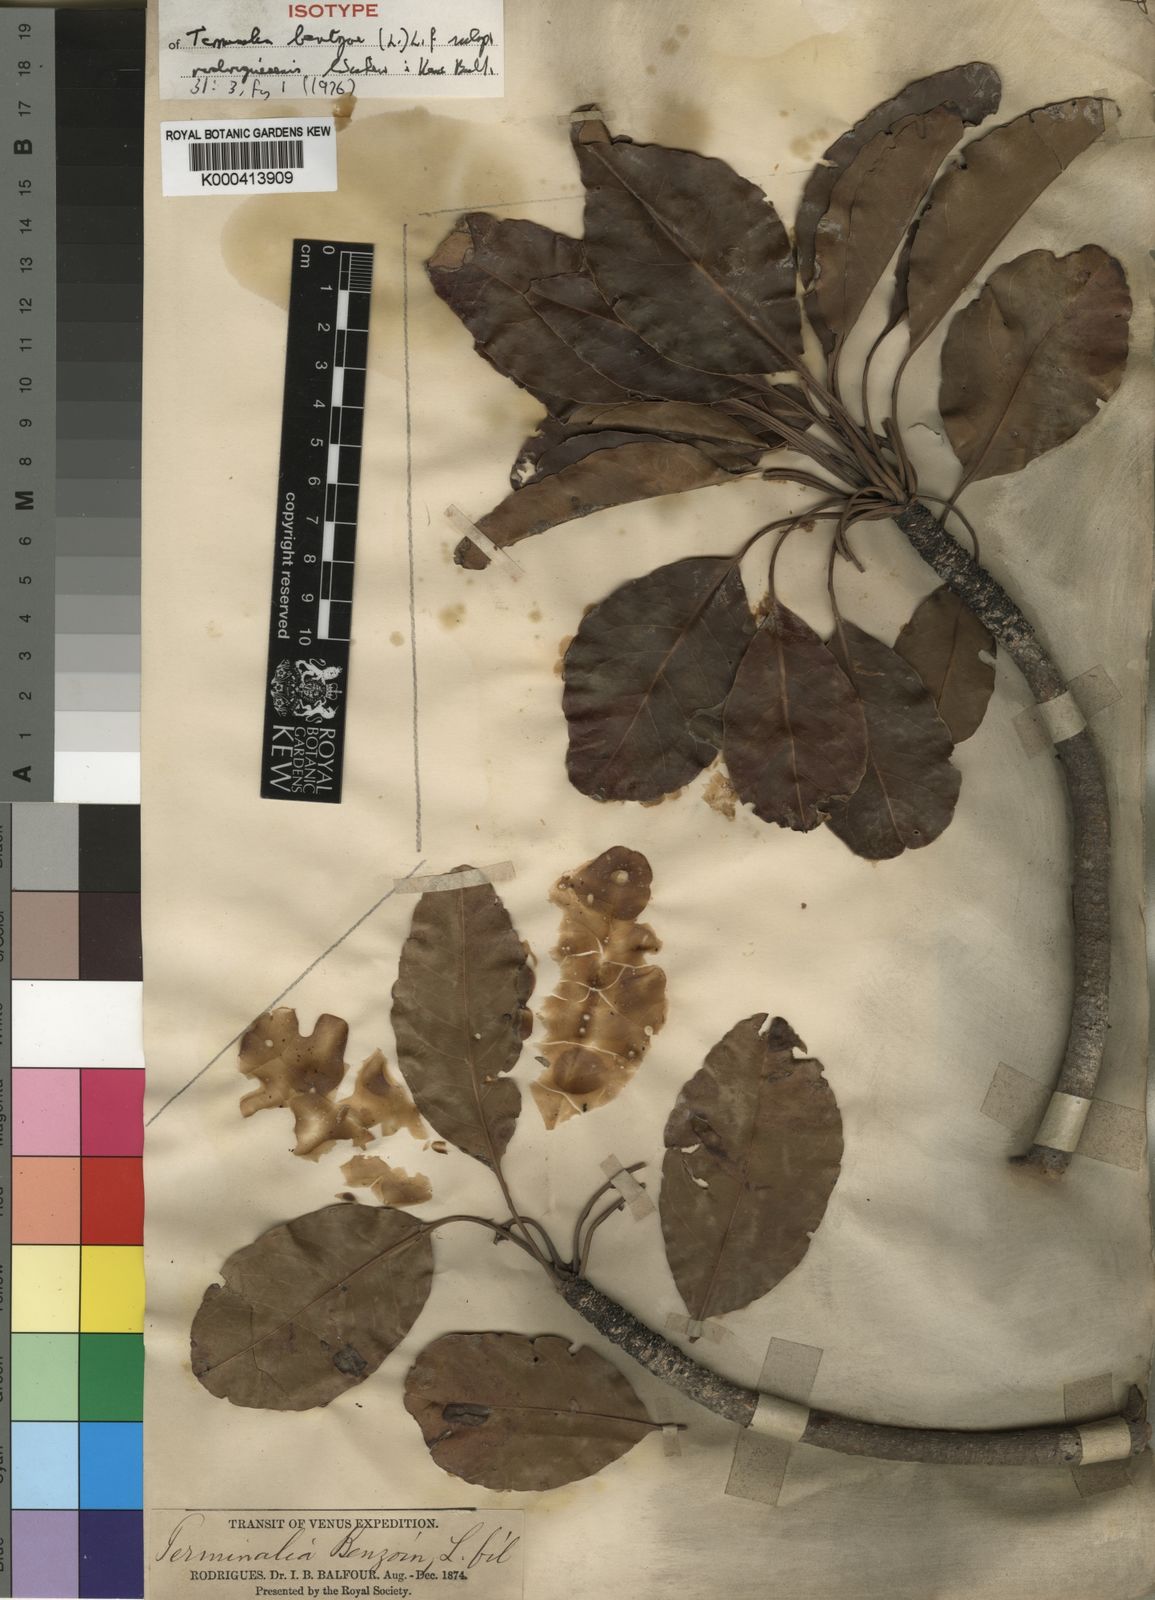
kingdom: Plantae
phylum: Tracheophyta
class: Magnoliopsida
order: Myrtales
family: Combretaceae
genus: Terminalia
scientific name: Terminalia bentzoe
